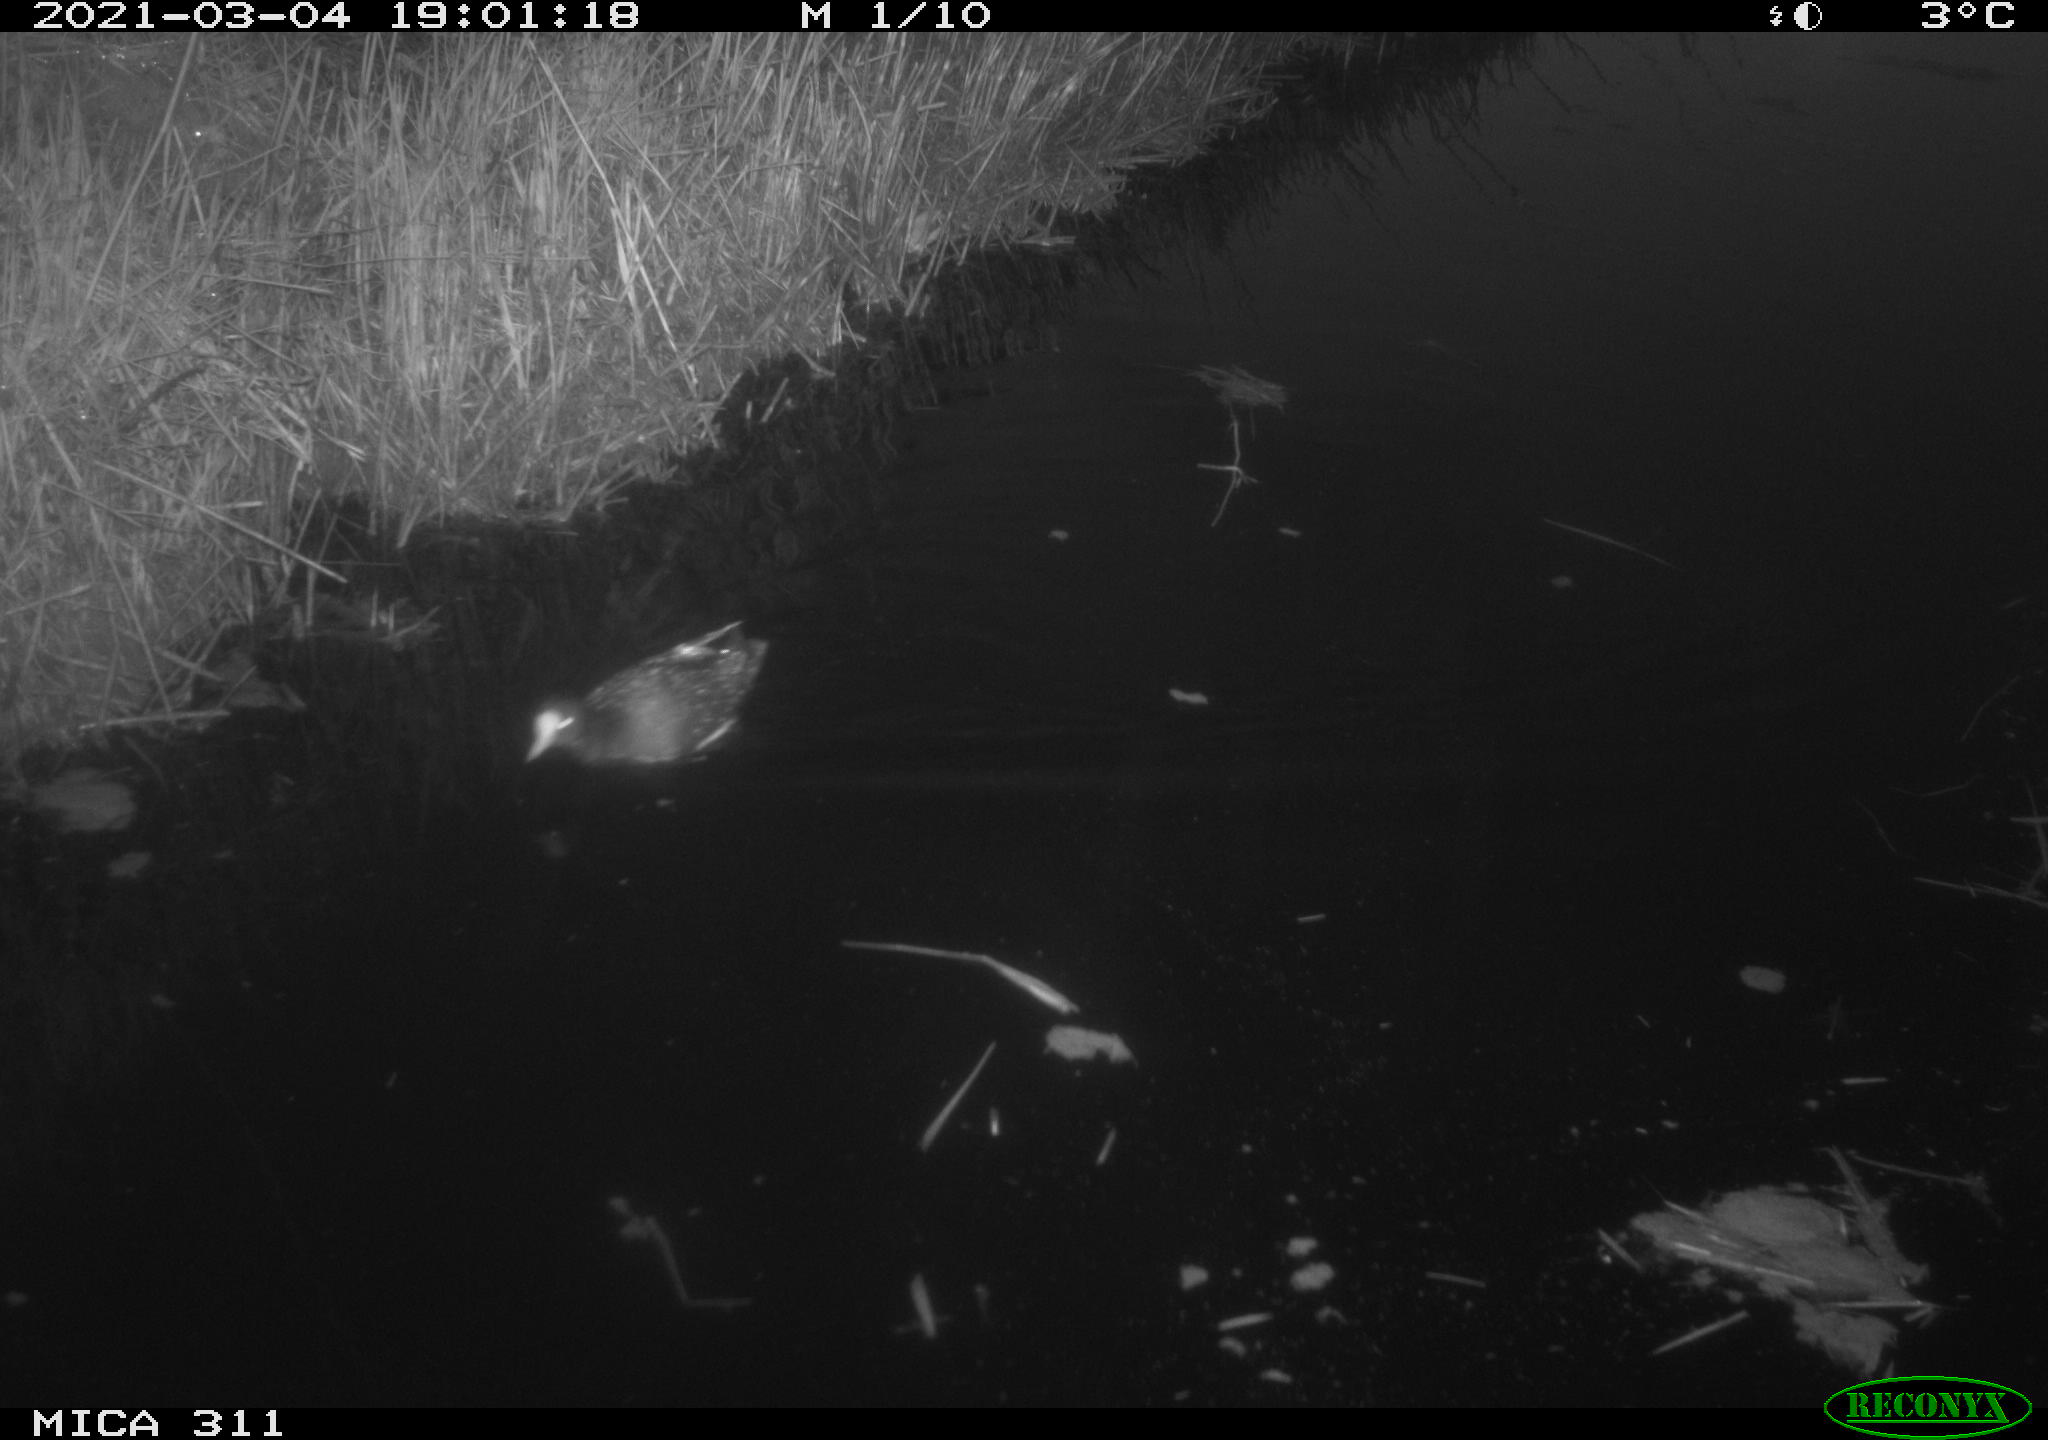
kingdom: Animalia
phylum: Chordata
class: Aves
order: Gruiformes
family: Rallidae
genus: Fulica
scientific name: Fulica atra
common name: Eurasian coot
